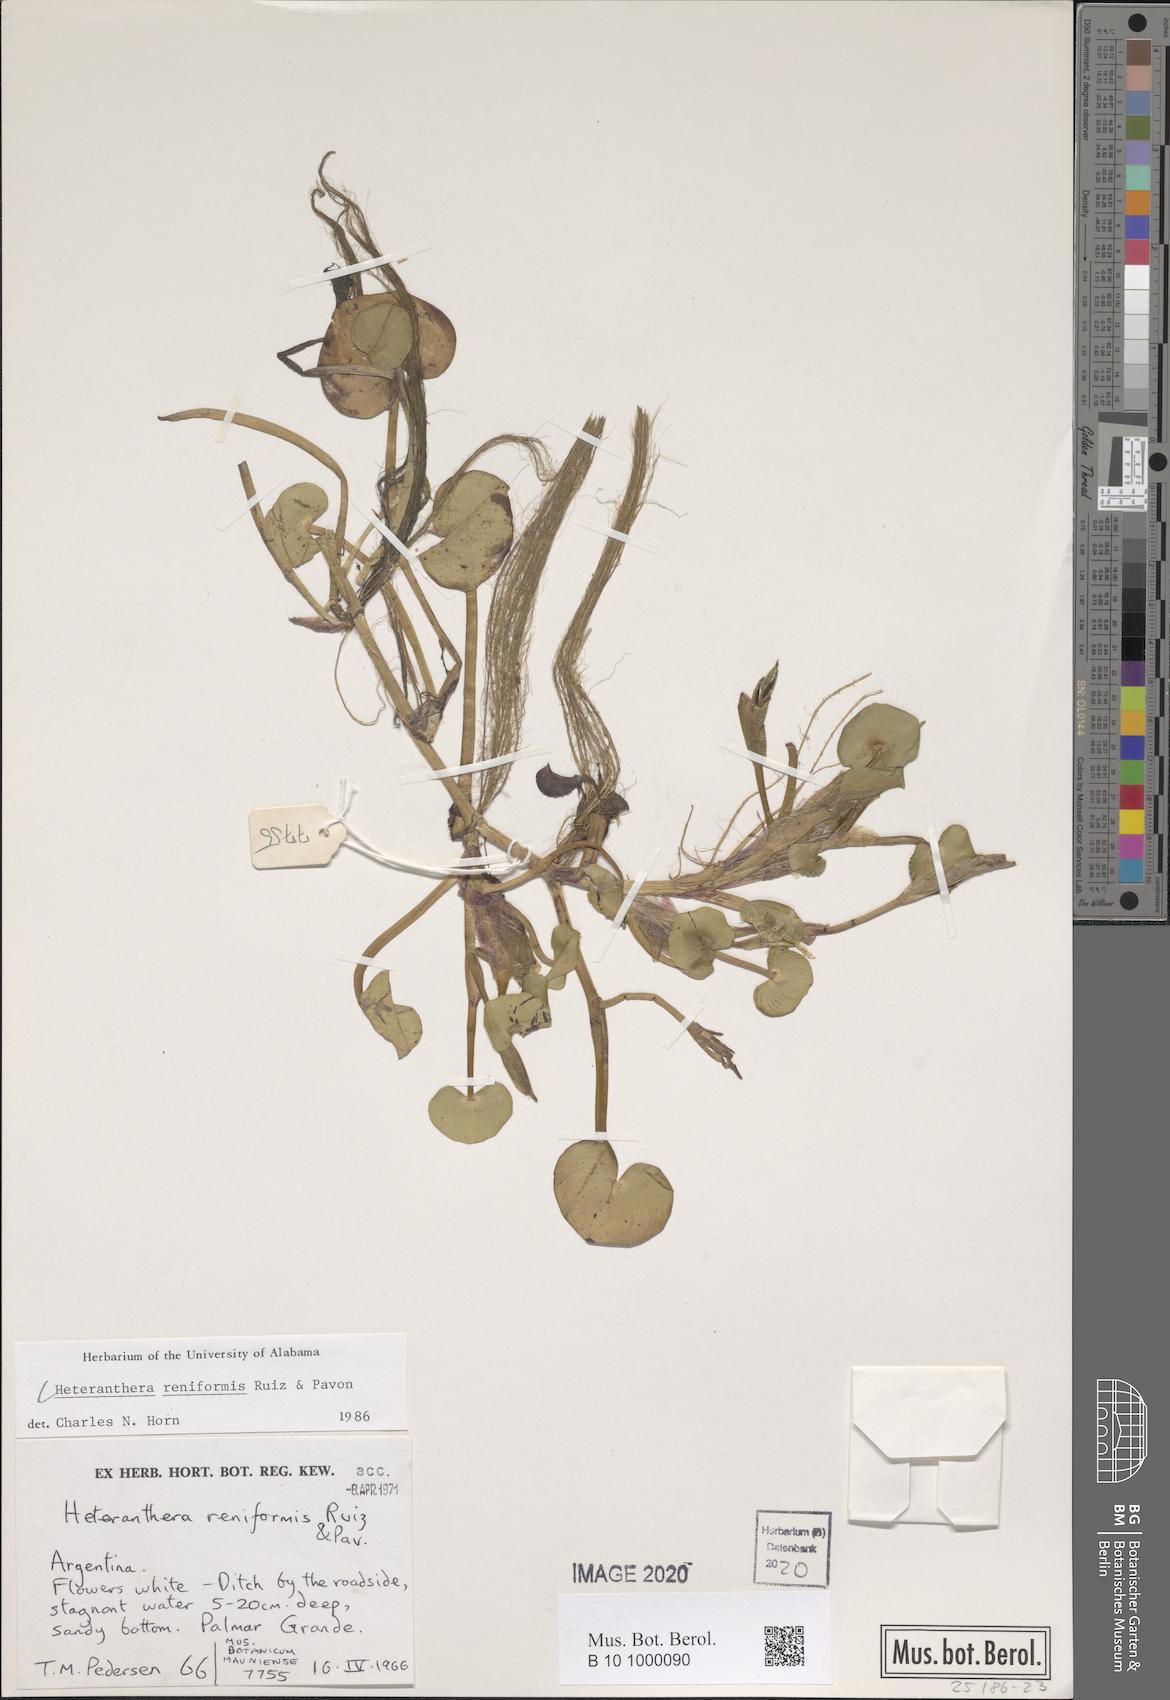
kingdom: Plantae
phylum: Tracheophyta
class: Liliopsida
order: Commelinales
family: Pontederiaceae
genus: Heteranthera
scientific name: Heteranthera reniformis
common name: Kidneyleaf mudplantain
